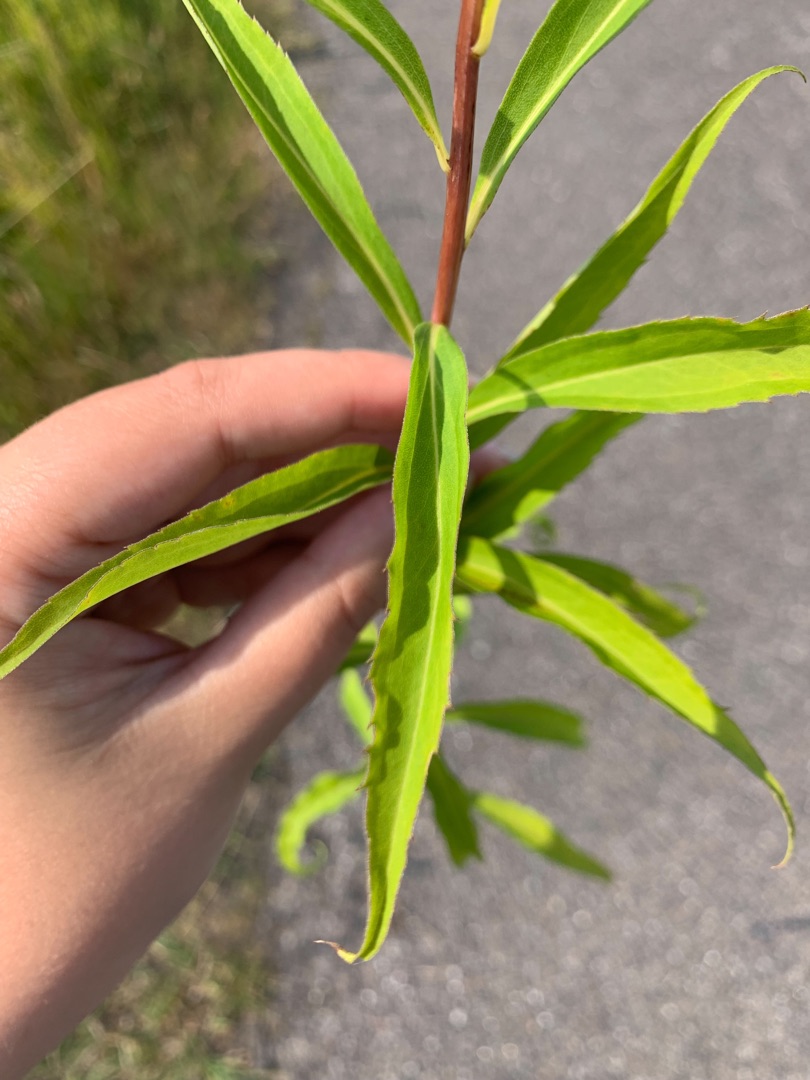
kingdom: Plantae
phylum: Tracheophyta
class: Magnoliopsida
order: Asterales
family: Asteraceae
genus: Solidago
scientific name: Solidago gigantea
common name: Sildig gyldenris
